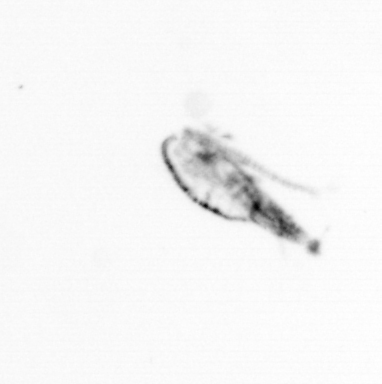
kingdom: Animalia
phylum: Arthropoda
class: Copepoda
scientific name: Copepoda
